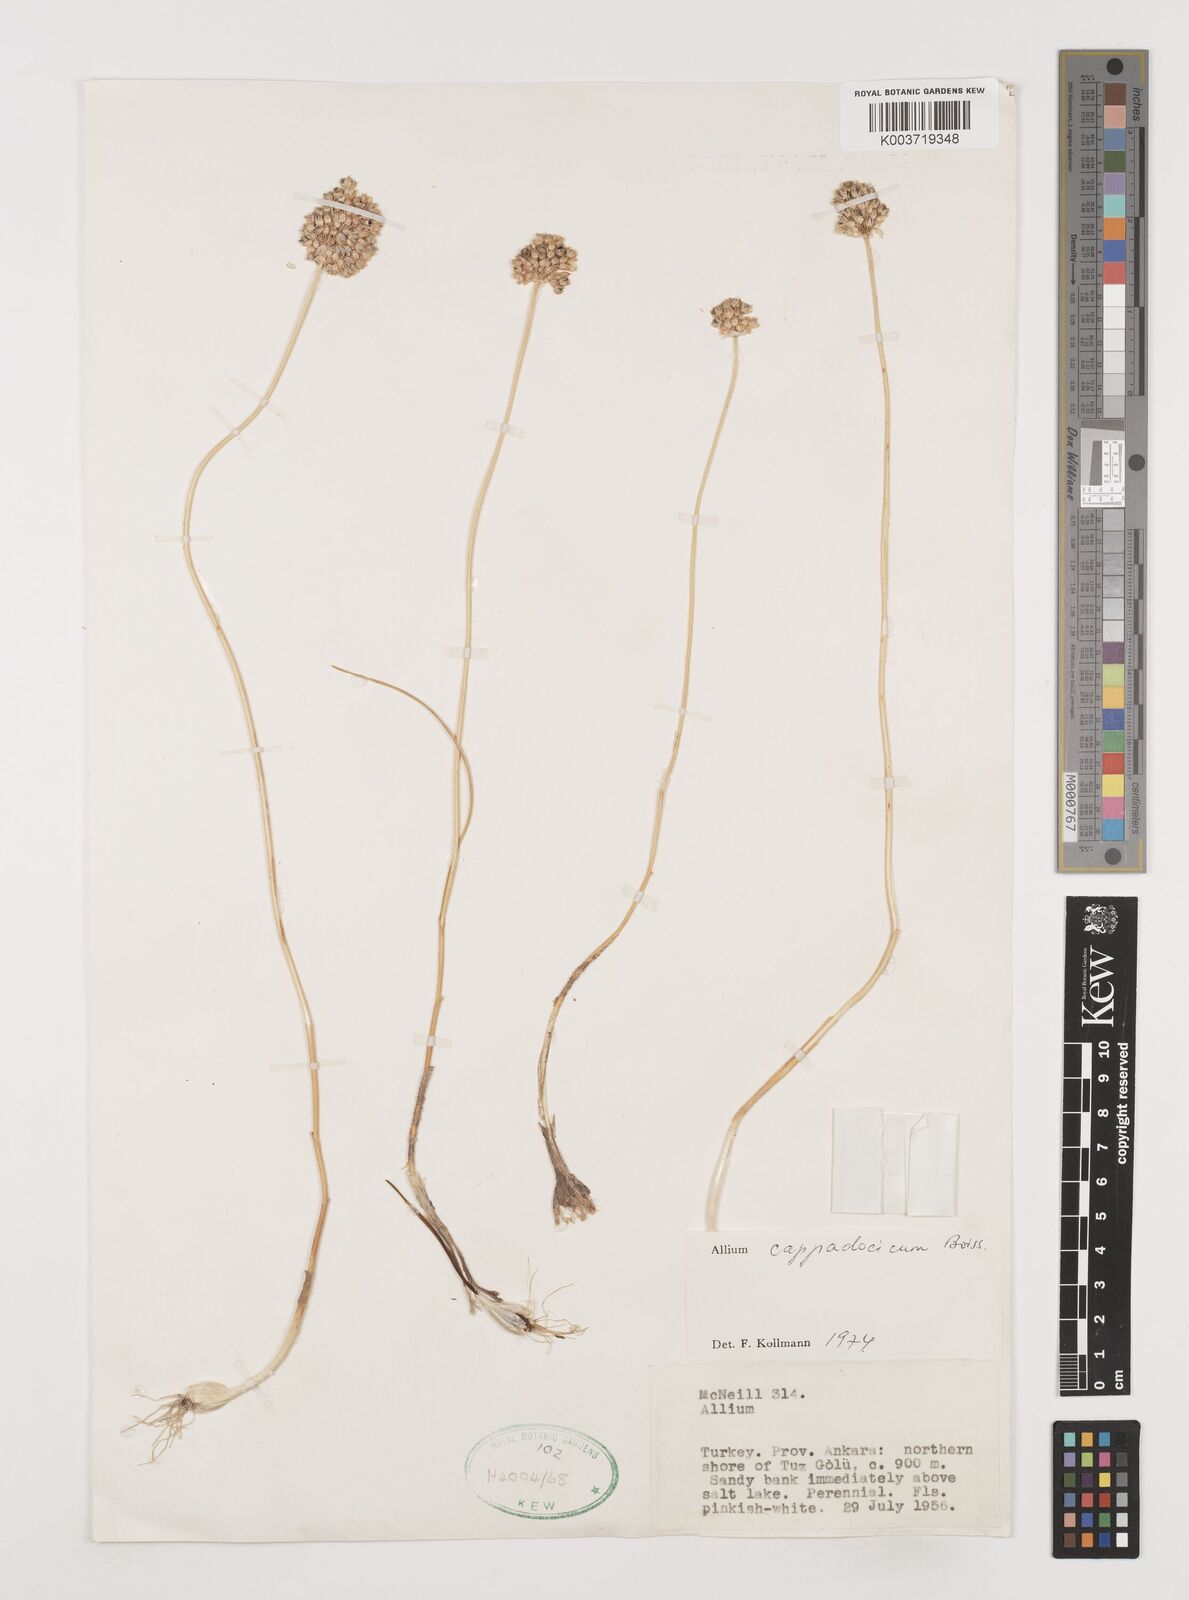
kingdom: Plantae
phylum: Tracheophyta
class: Liliopsida
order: Asparagales
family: Amaryllidaceae
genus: Allium
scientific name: Allium cappadocicum
